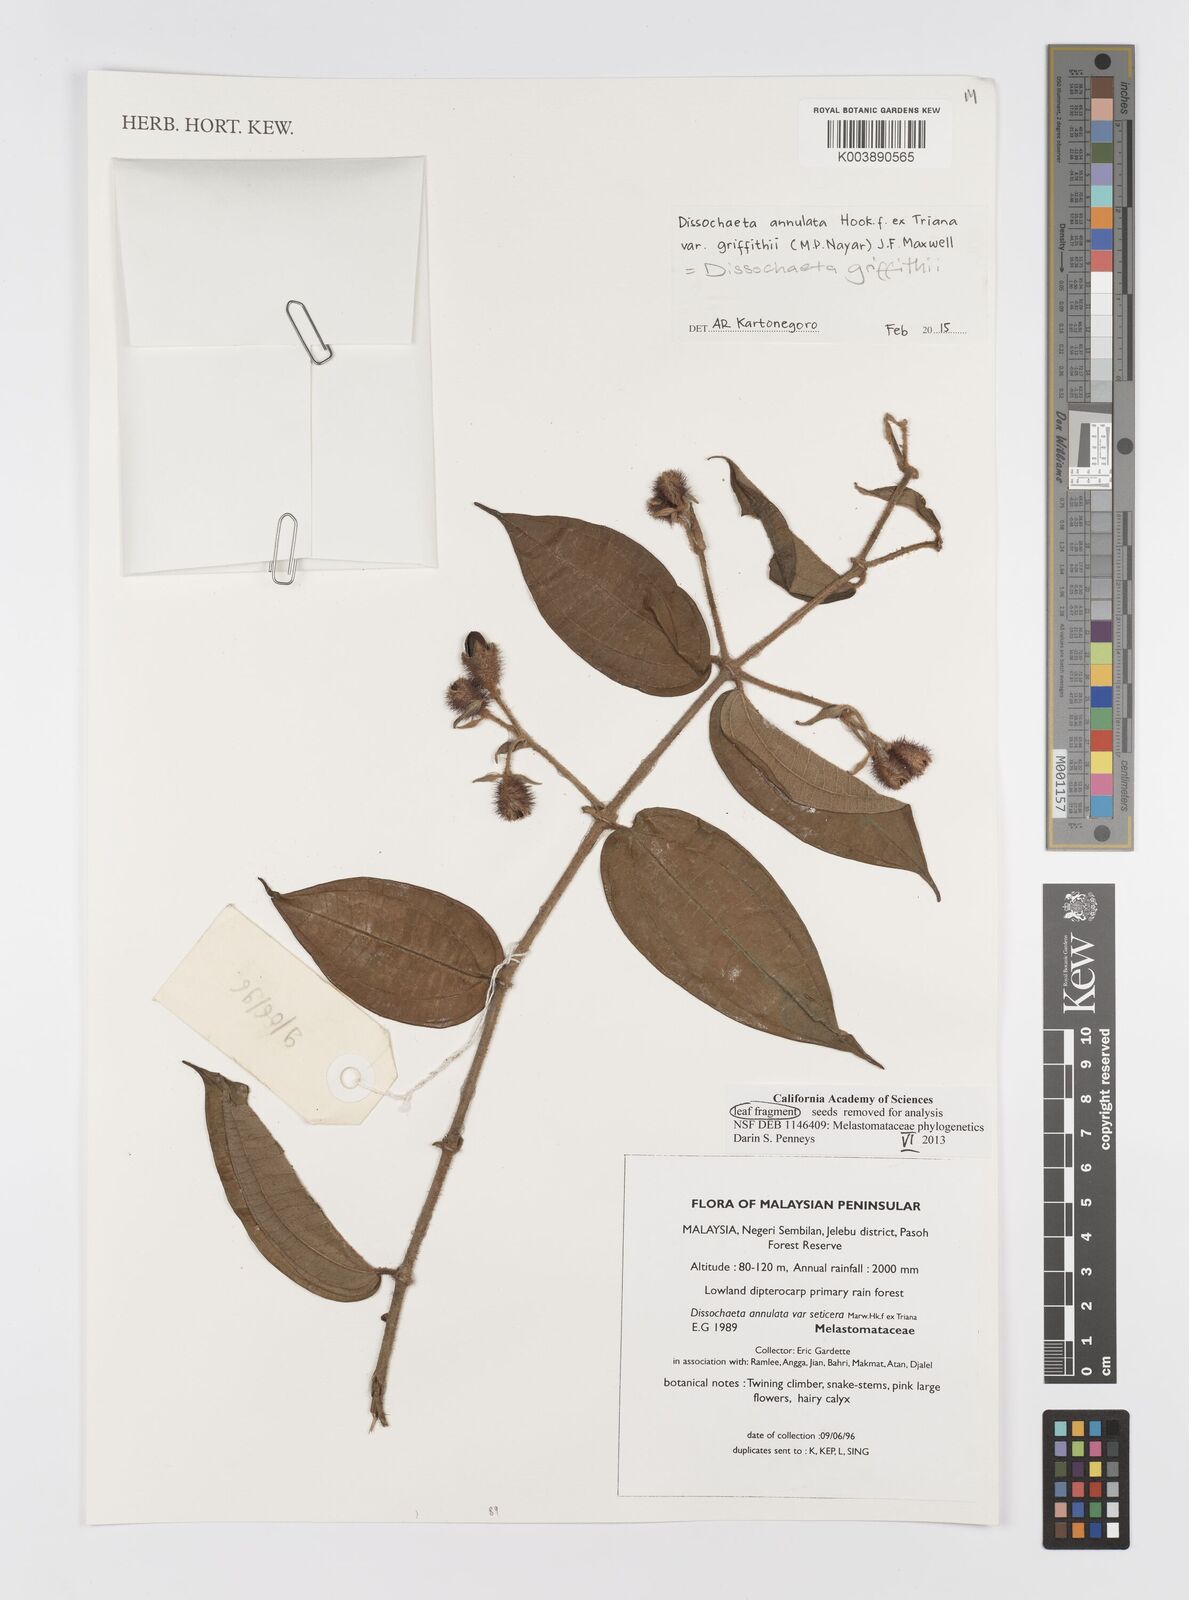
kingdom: Plantae
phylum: Tracheophyta
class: Magnoliopsida
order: Myrtales
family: Melastomataceae
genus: Dissochaeta
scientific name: Dissochaeta griffithii
